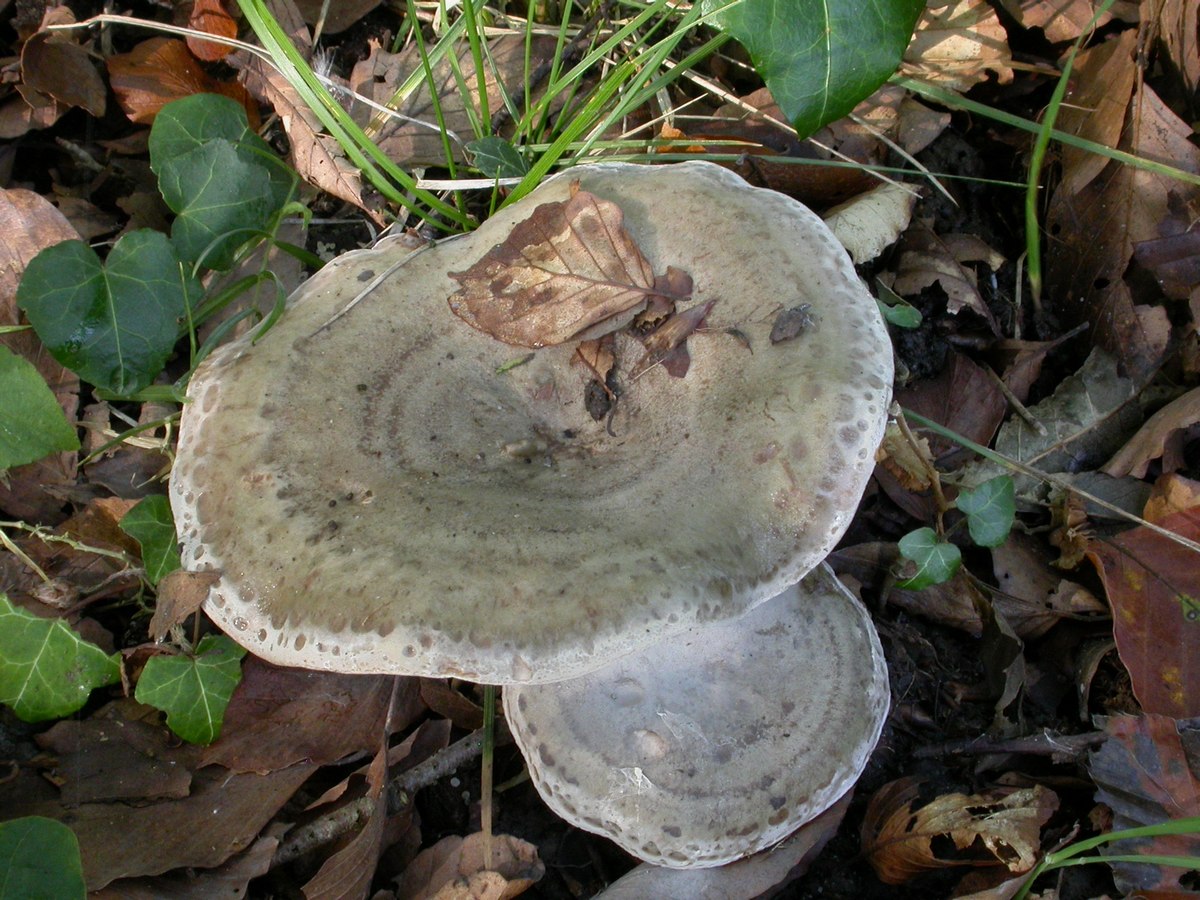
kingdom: Fungi
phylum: Basidiomycota
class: Agaricomycetes
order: Russulales
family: Russulaceae
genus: Lactarius
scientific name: Lactarius fluens
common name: lysrandet mælkehat
